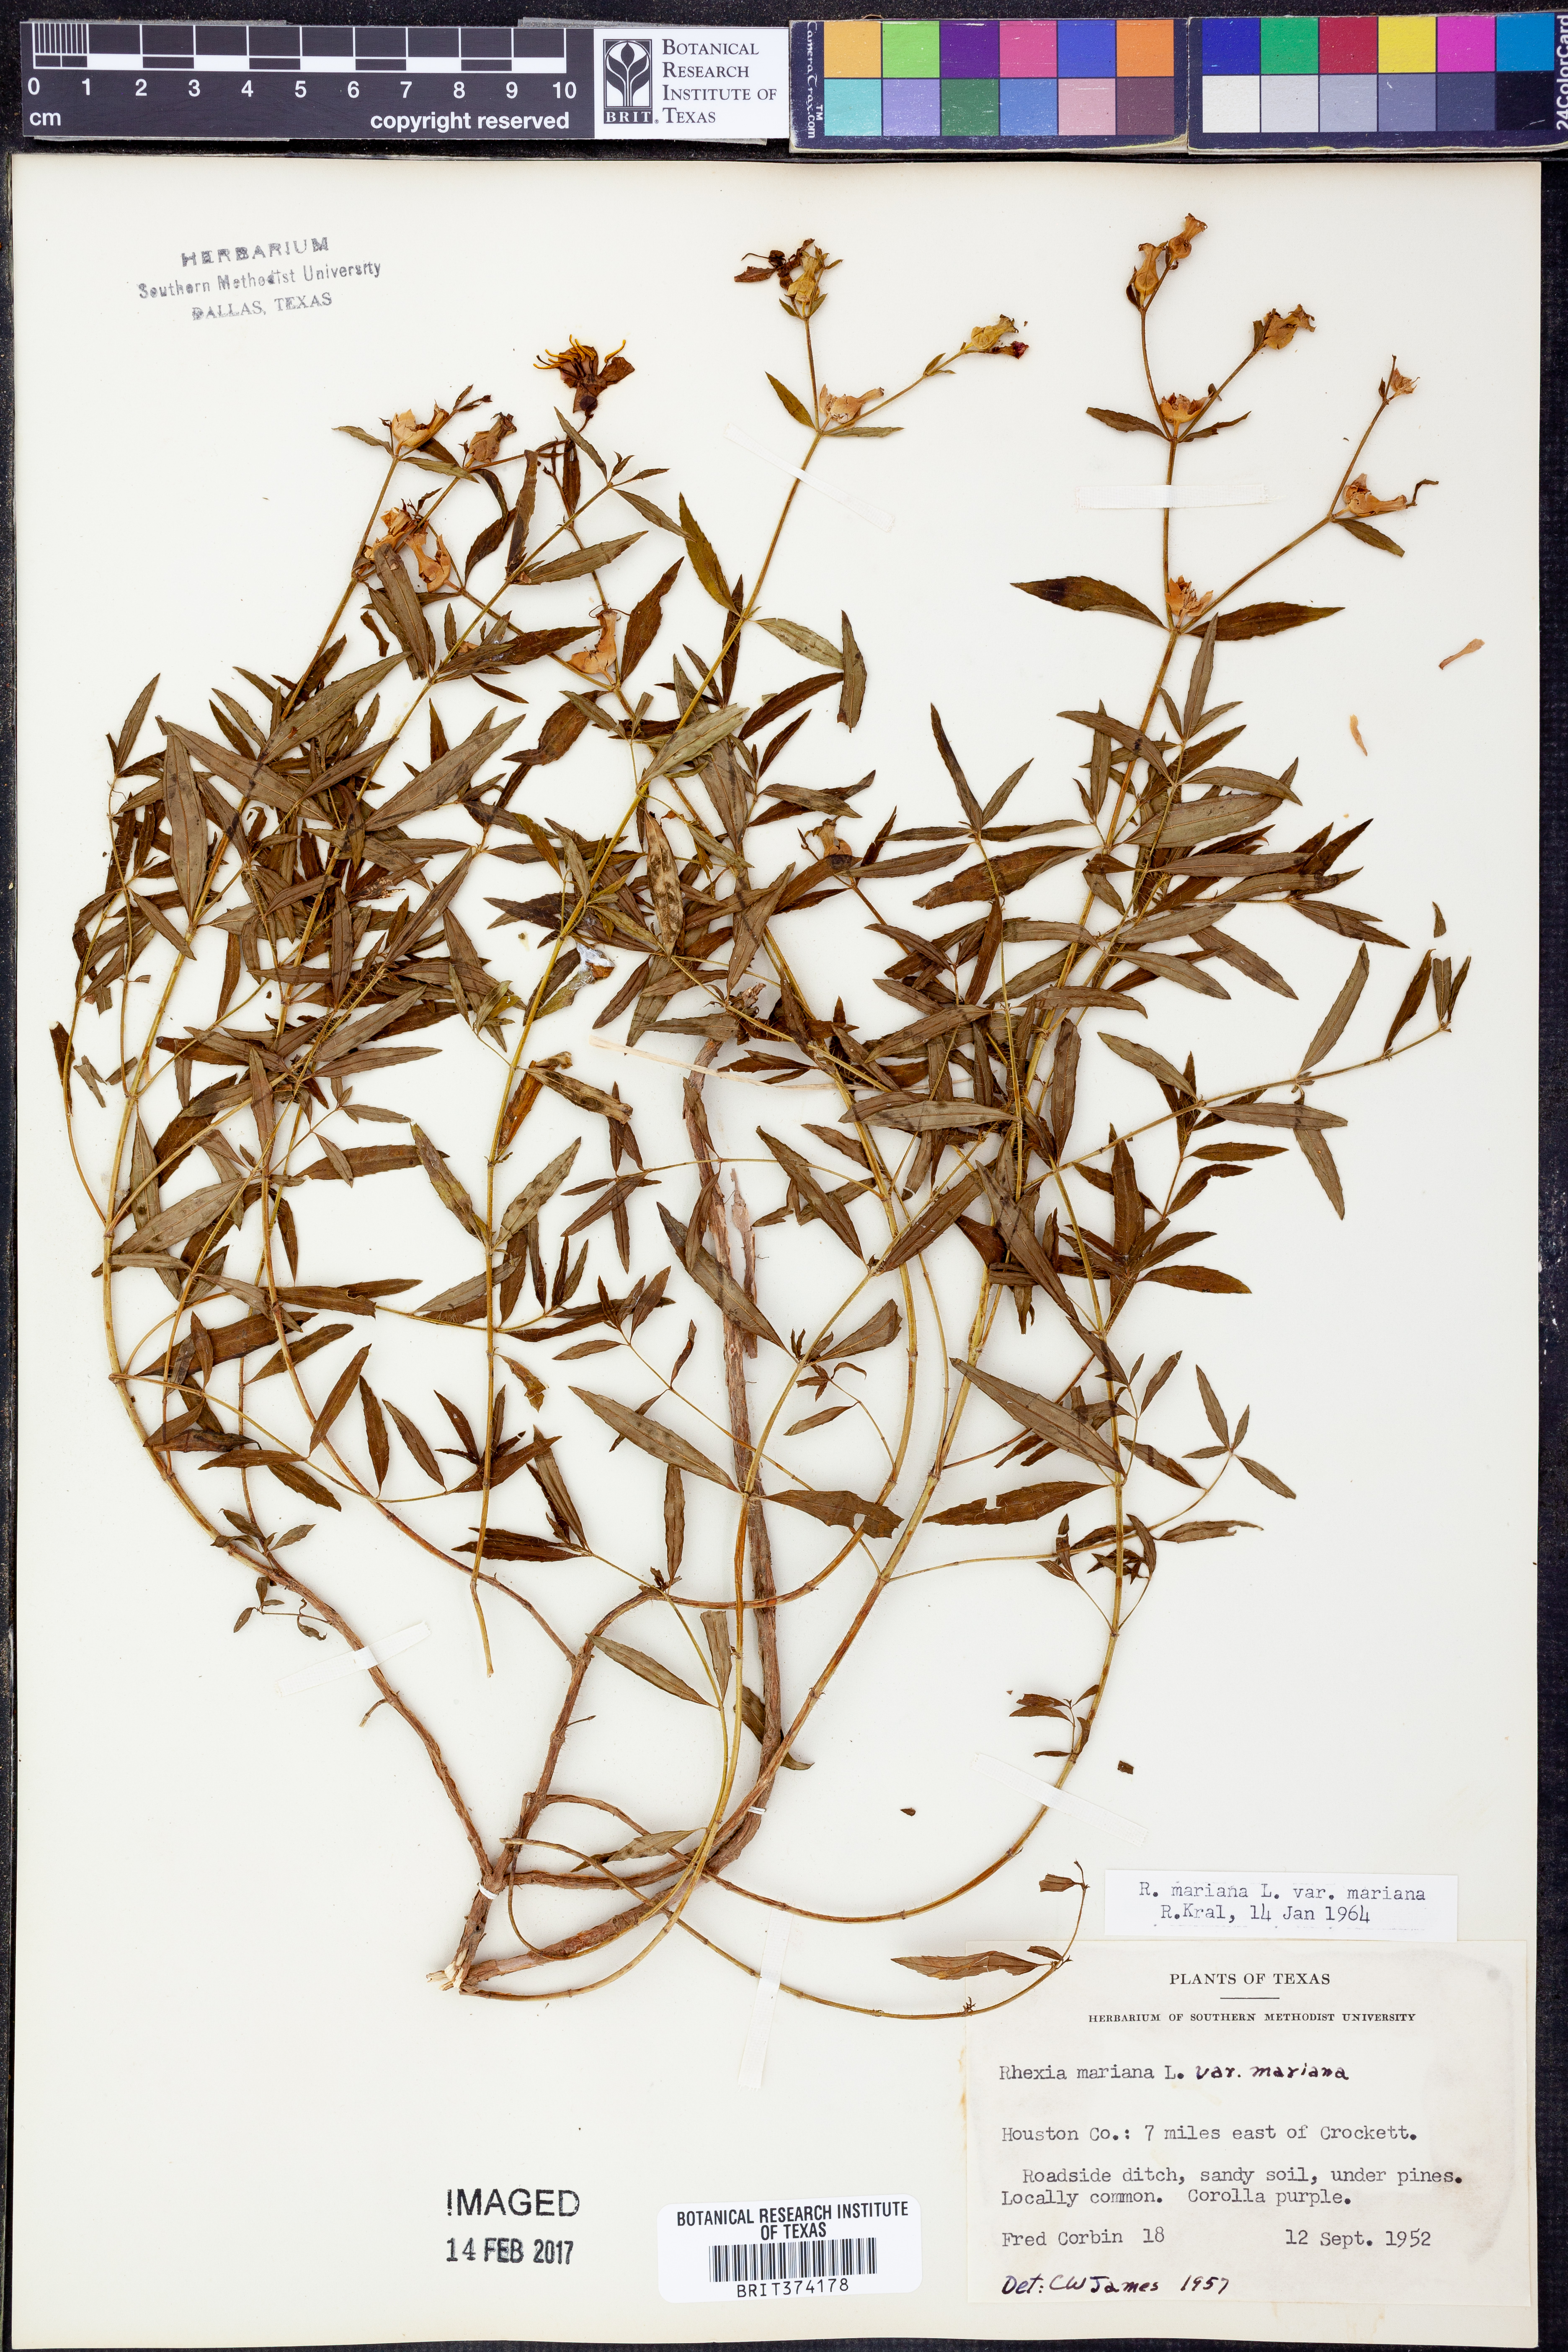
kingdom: Plantae
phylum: Tracheophyta
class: Magnoliopsida
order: Myrtales
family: Melastomataceae
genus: Rhexia
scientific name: Rhexia mariana
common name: Dull meadow-pitcher
